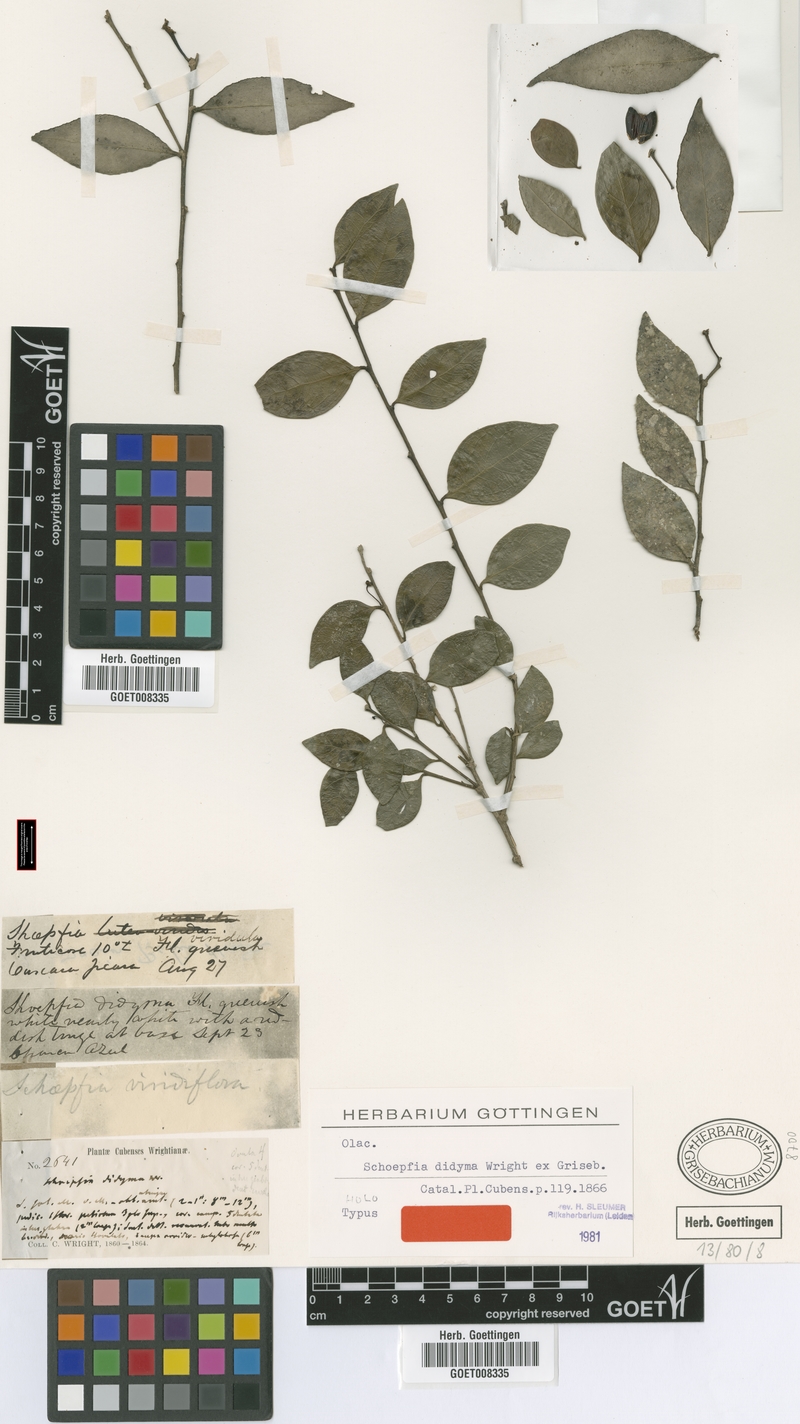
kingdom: Plantae
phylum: Tracheophyta
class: Magnoliopsida
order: Santalales
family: Schoepfiaceae
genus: Schoepfia
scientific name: Schoepfia didyma
